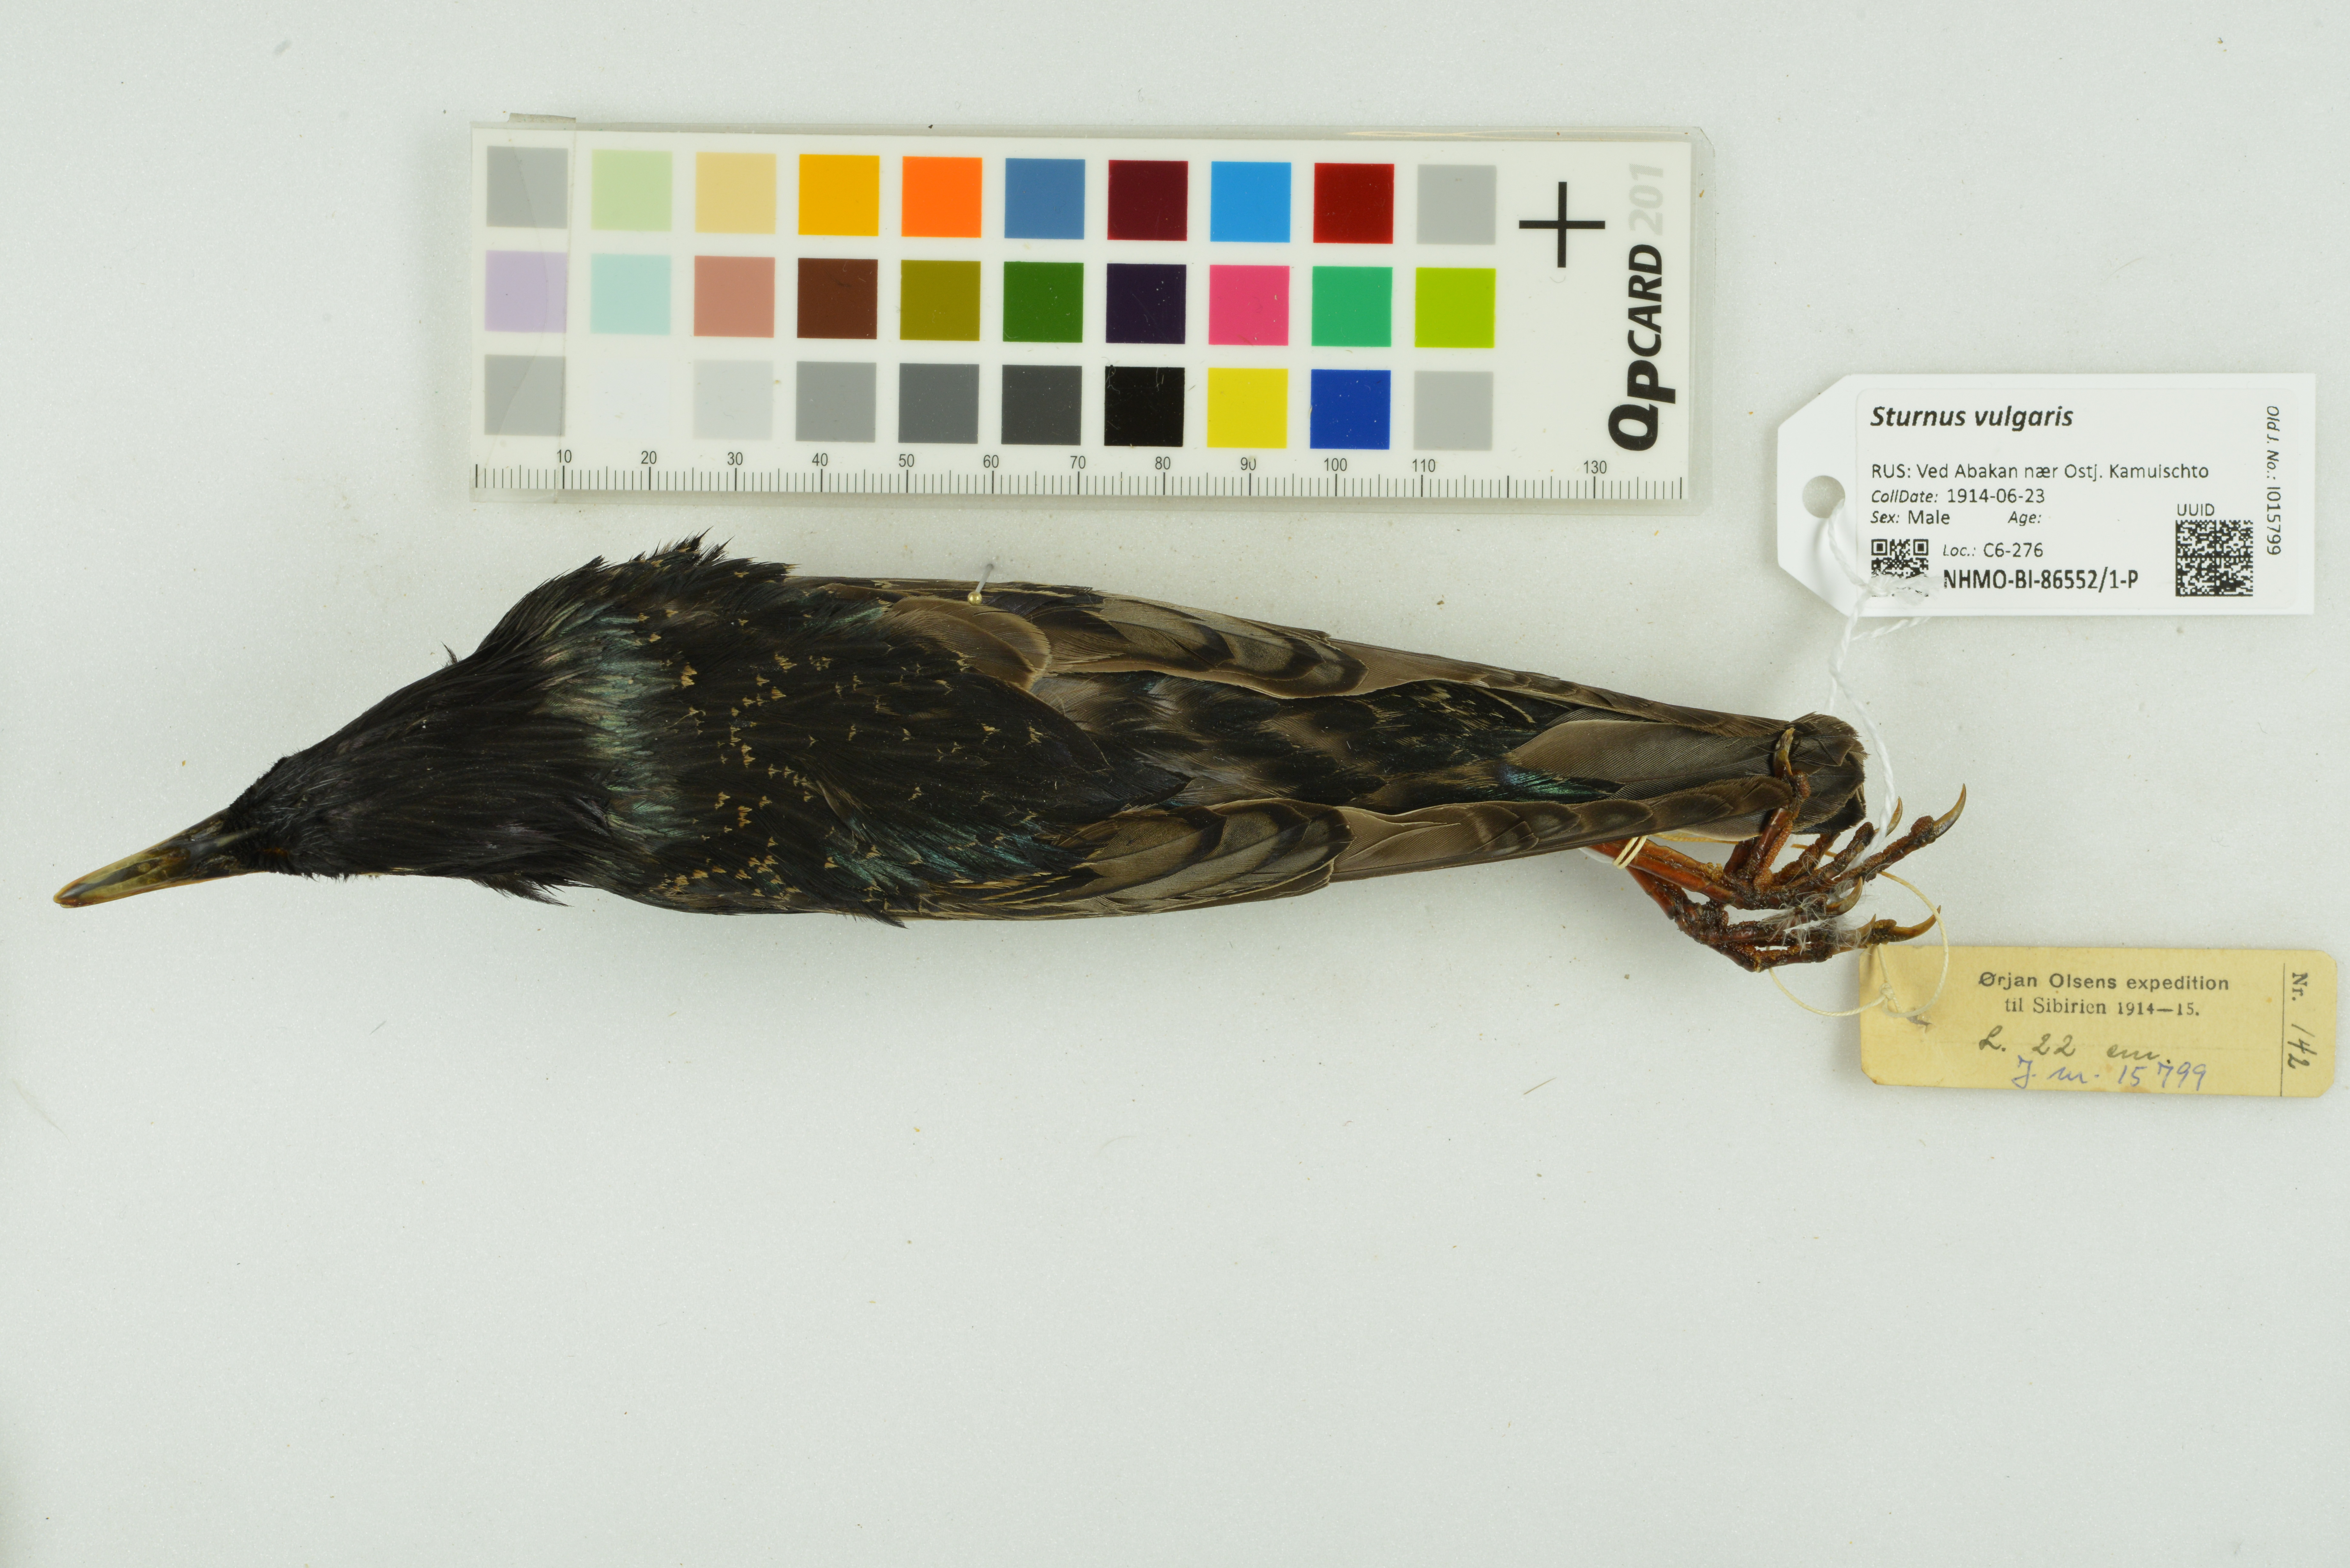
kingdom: Animalia
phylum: Chordata
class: Aves
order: Passeriformes
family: Sturnidae
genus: Sturnus
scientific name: Sturnus vulgaris
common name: Common starling
